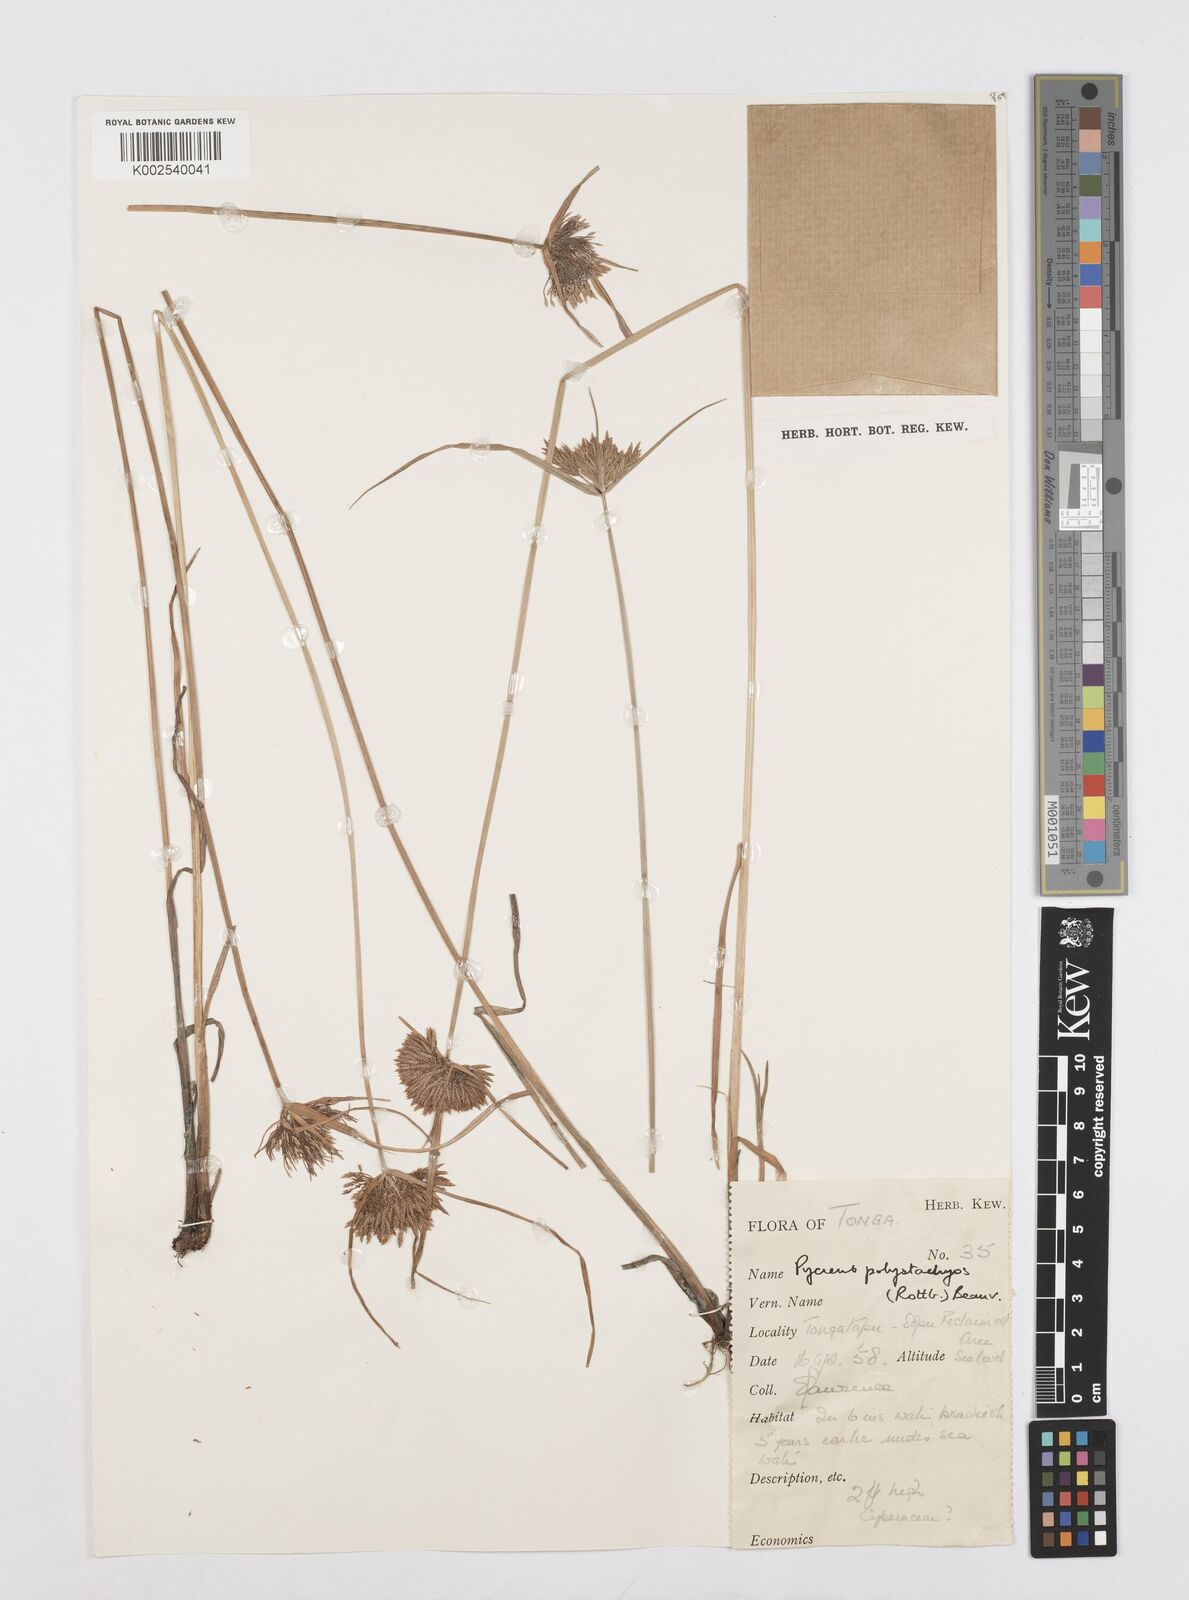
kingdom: Plantae
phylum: Tracheophyta
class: Liliopsida
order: Poales
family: Cyperaceae
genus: Cyperus
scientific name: Cyperus polystachyos
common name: Bunchy flat sedge
